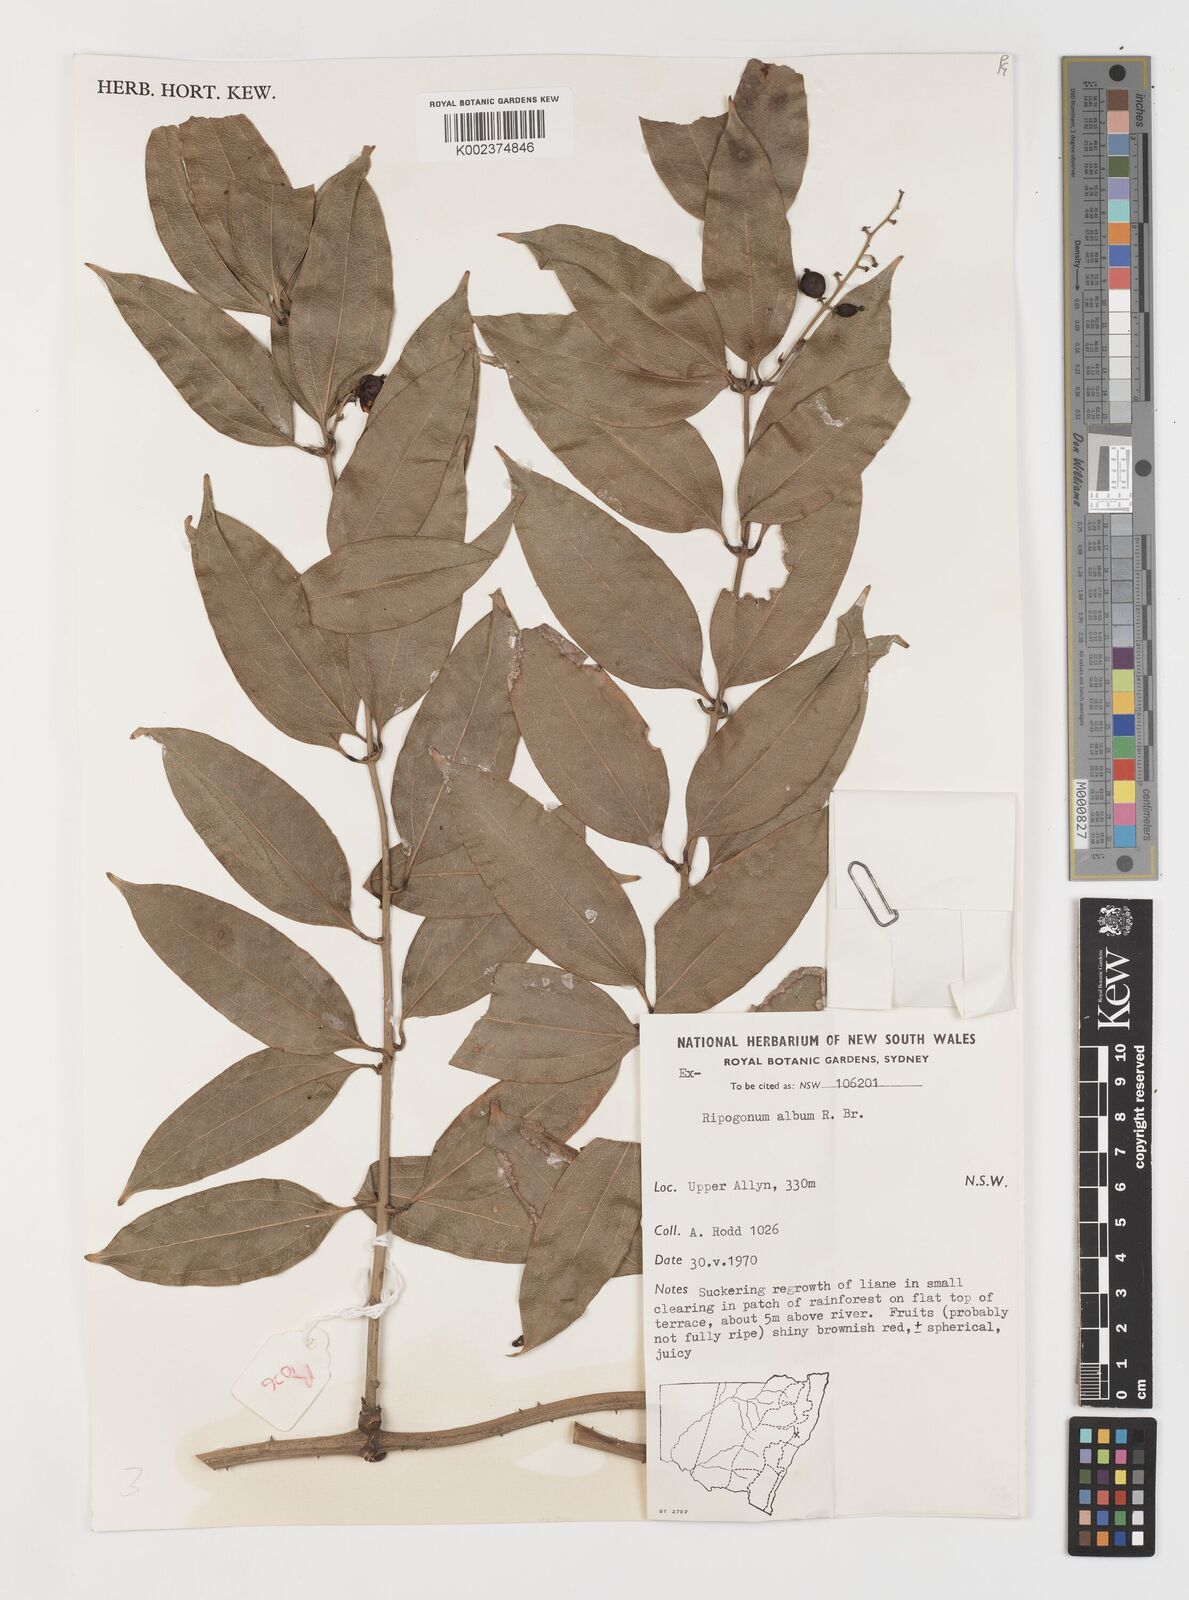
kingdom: Plantae
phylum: Tracheophyta
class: Liliopsida
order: Liliales
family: Ripogonaceae
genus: Ripogonum
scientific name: Ripogonum album
